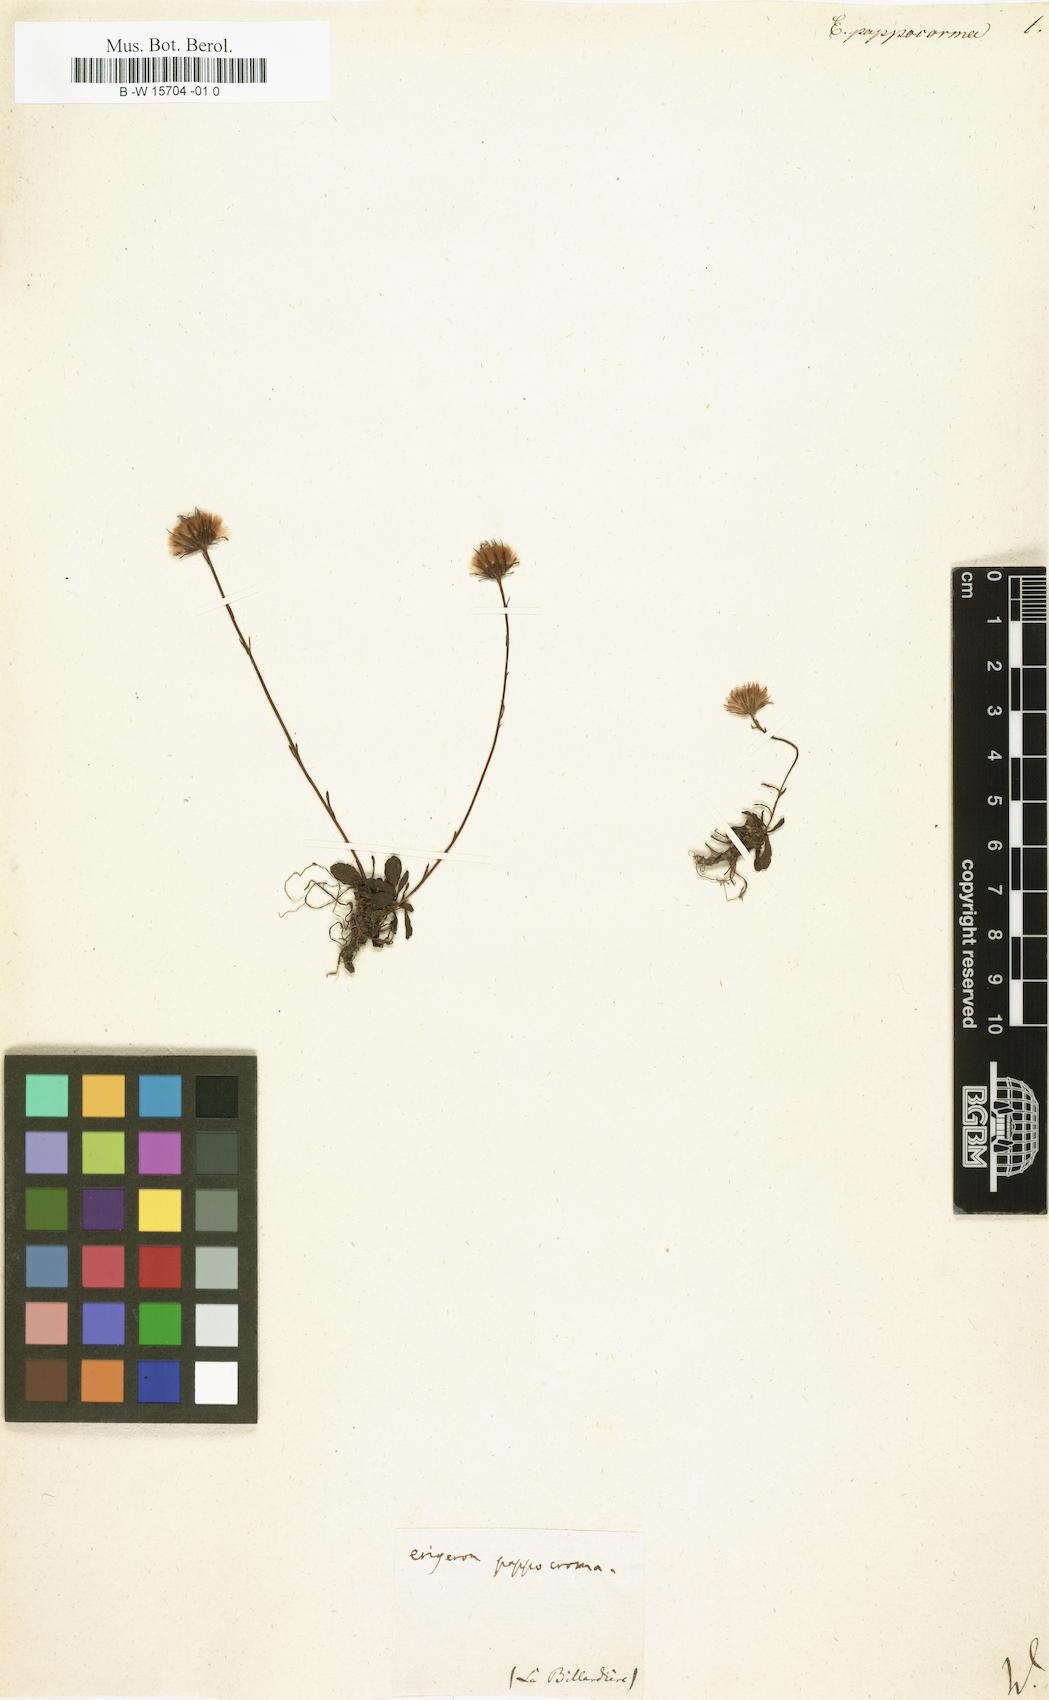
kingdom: Plantae
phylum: Tracheophyta
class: Magnoliopsida
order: Asterales
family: Asteraceae
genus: Pappochroma
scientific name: Pappochroma pappocromum
